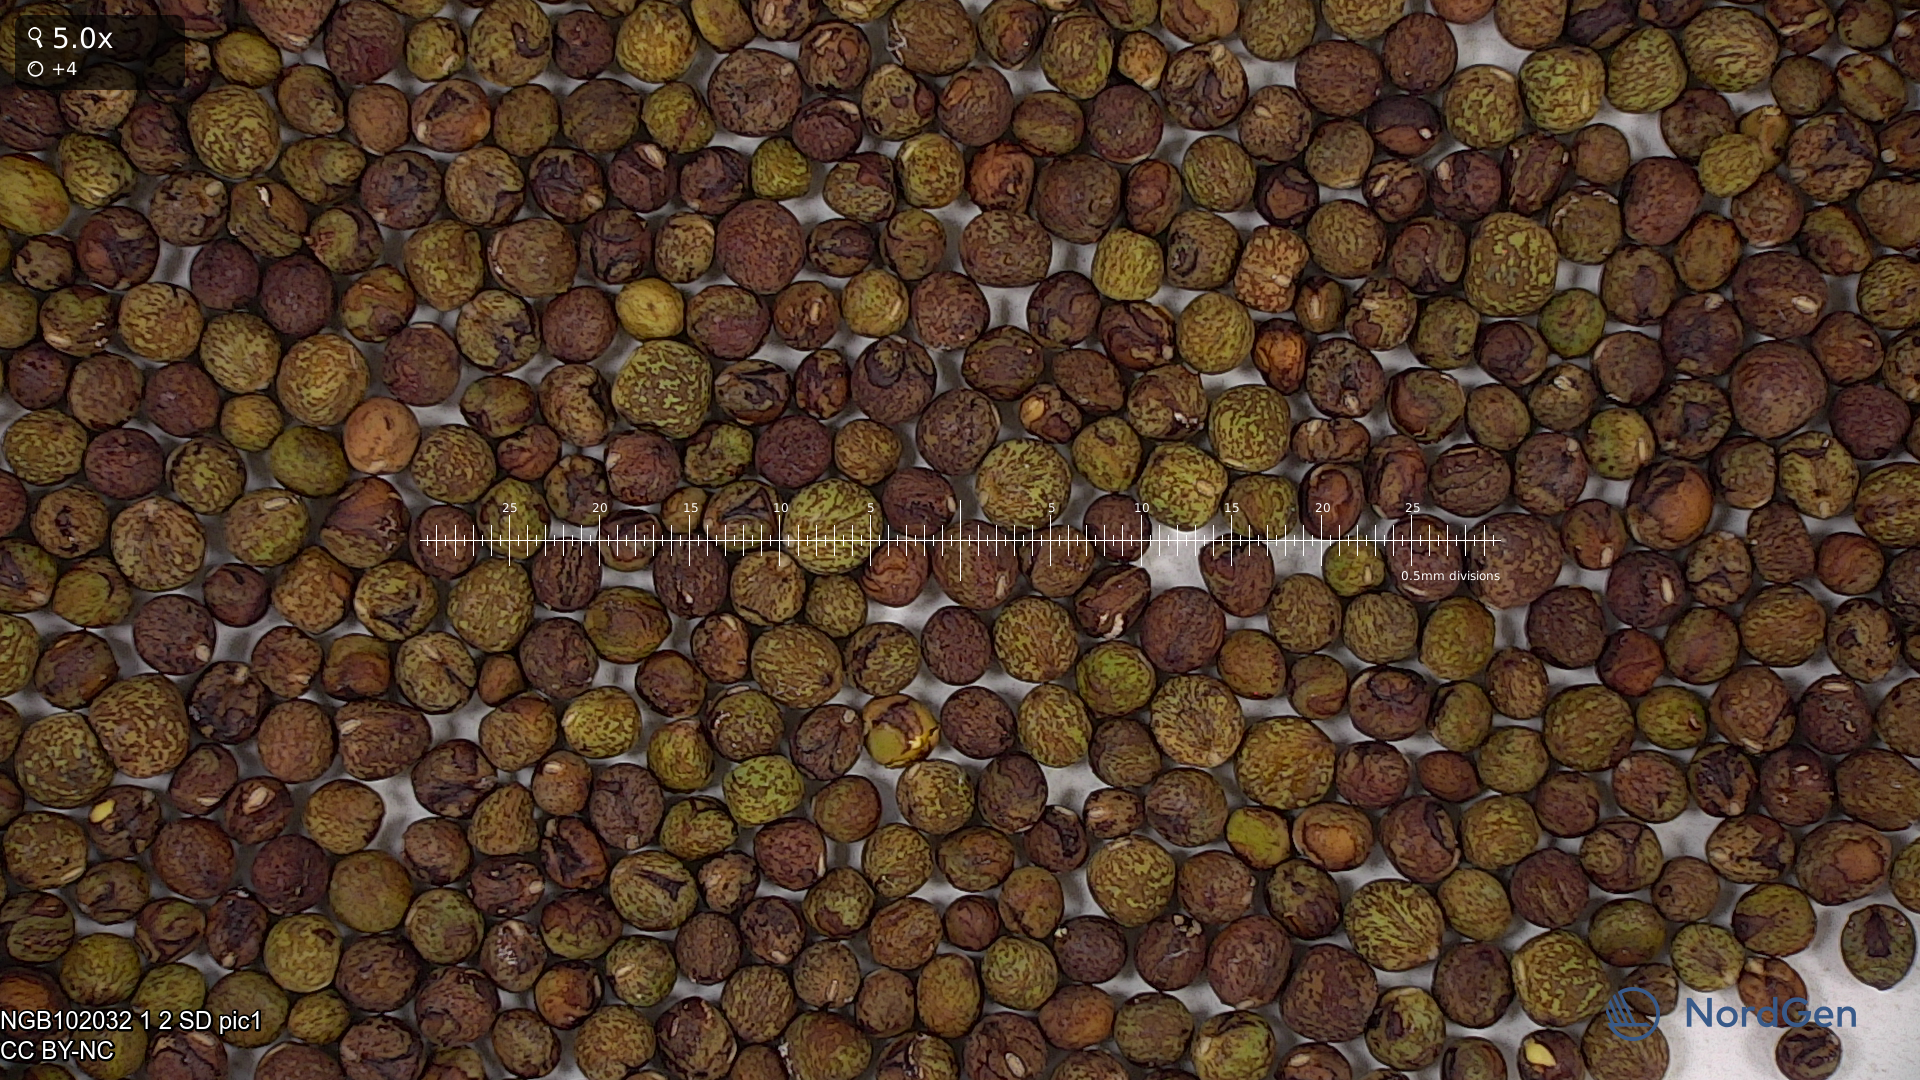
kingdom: Plantae
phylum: Tracheophyta
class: Magnoliopsida
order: Fabales
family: Fabaceae
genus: Lathyrus
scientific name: Lathyrus oleraceus
